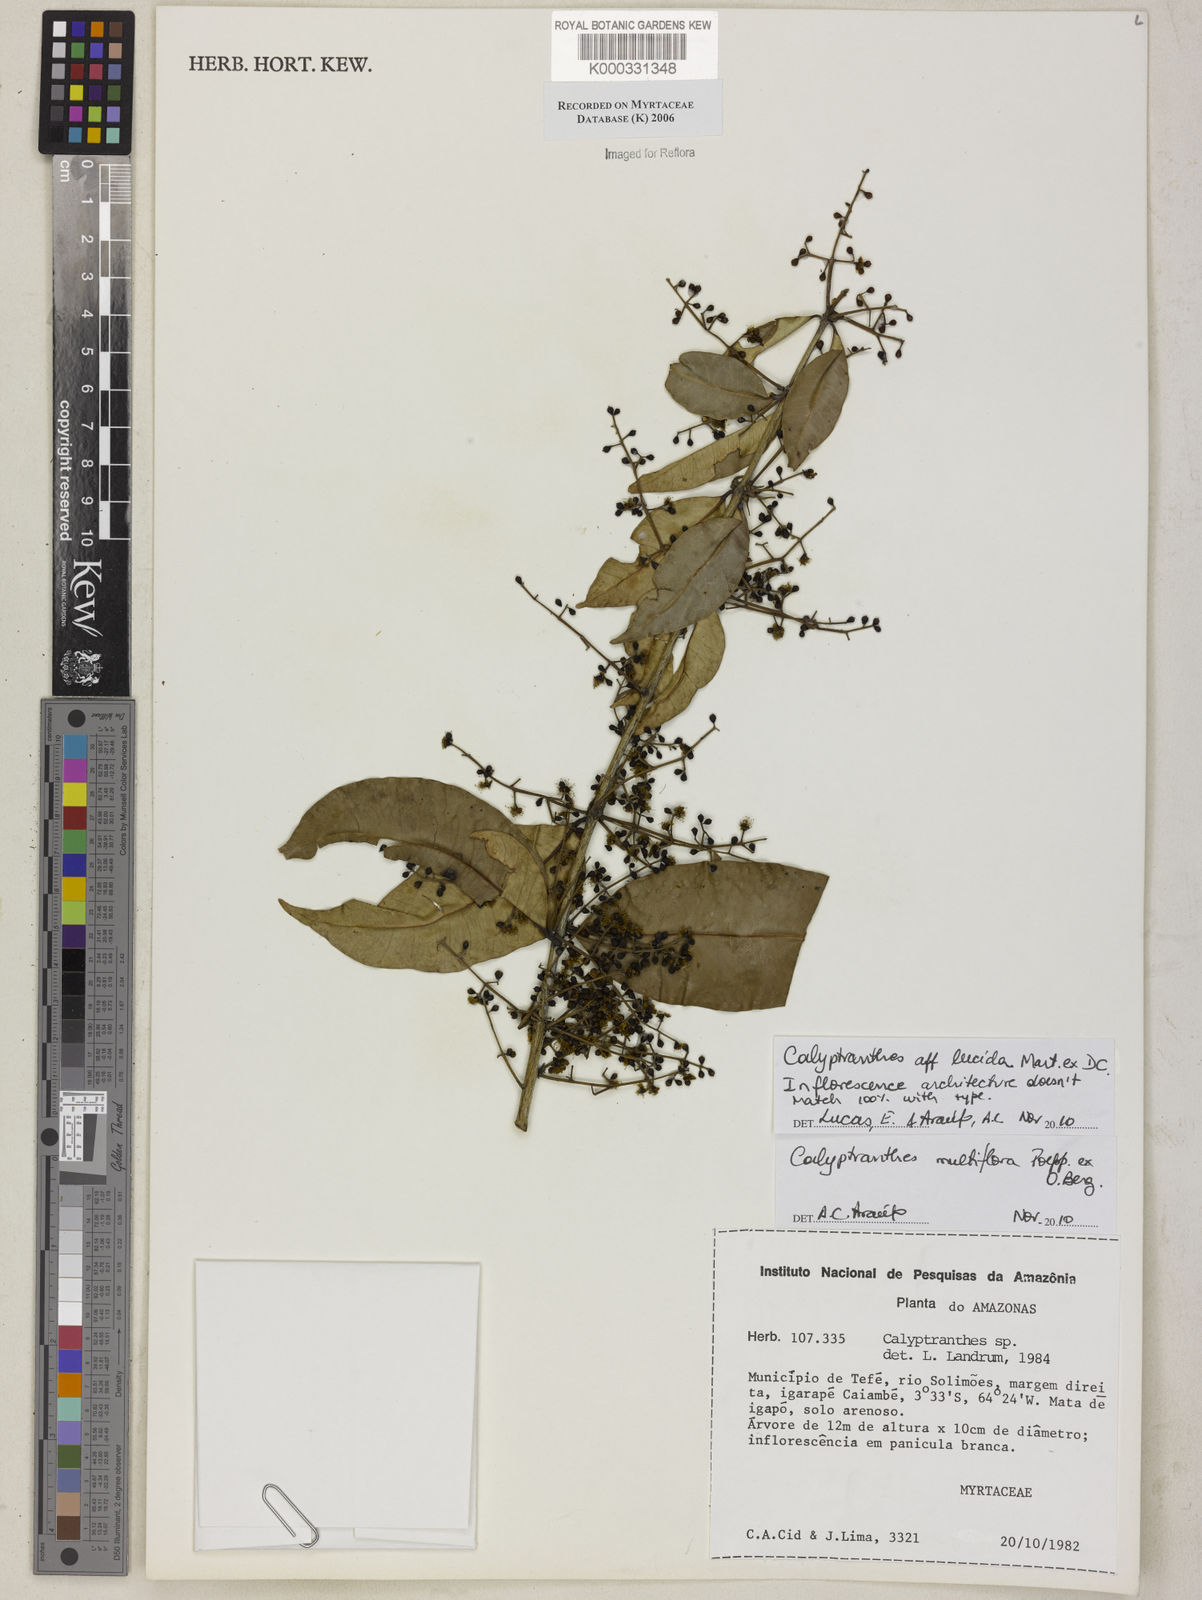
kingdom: Plantae
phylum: Tracheophyta
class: Magnoliopsida
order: Myrtales
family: Myrtaceae
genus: Calyptranthes
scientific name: Calyptranthes
